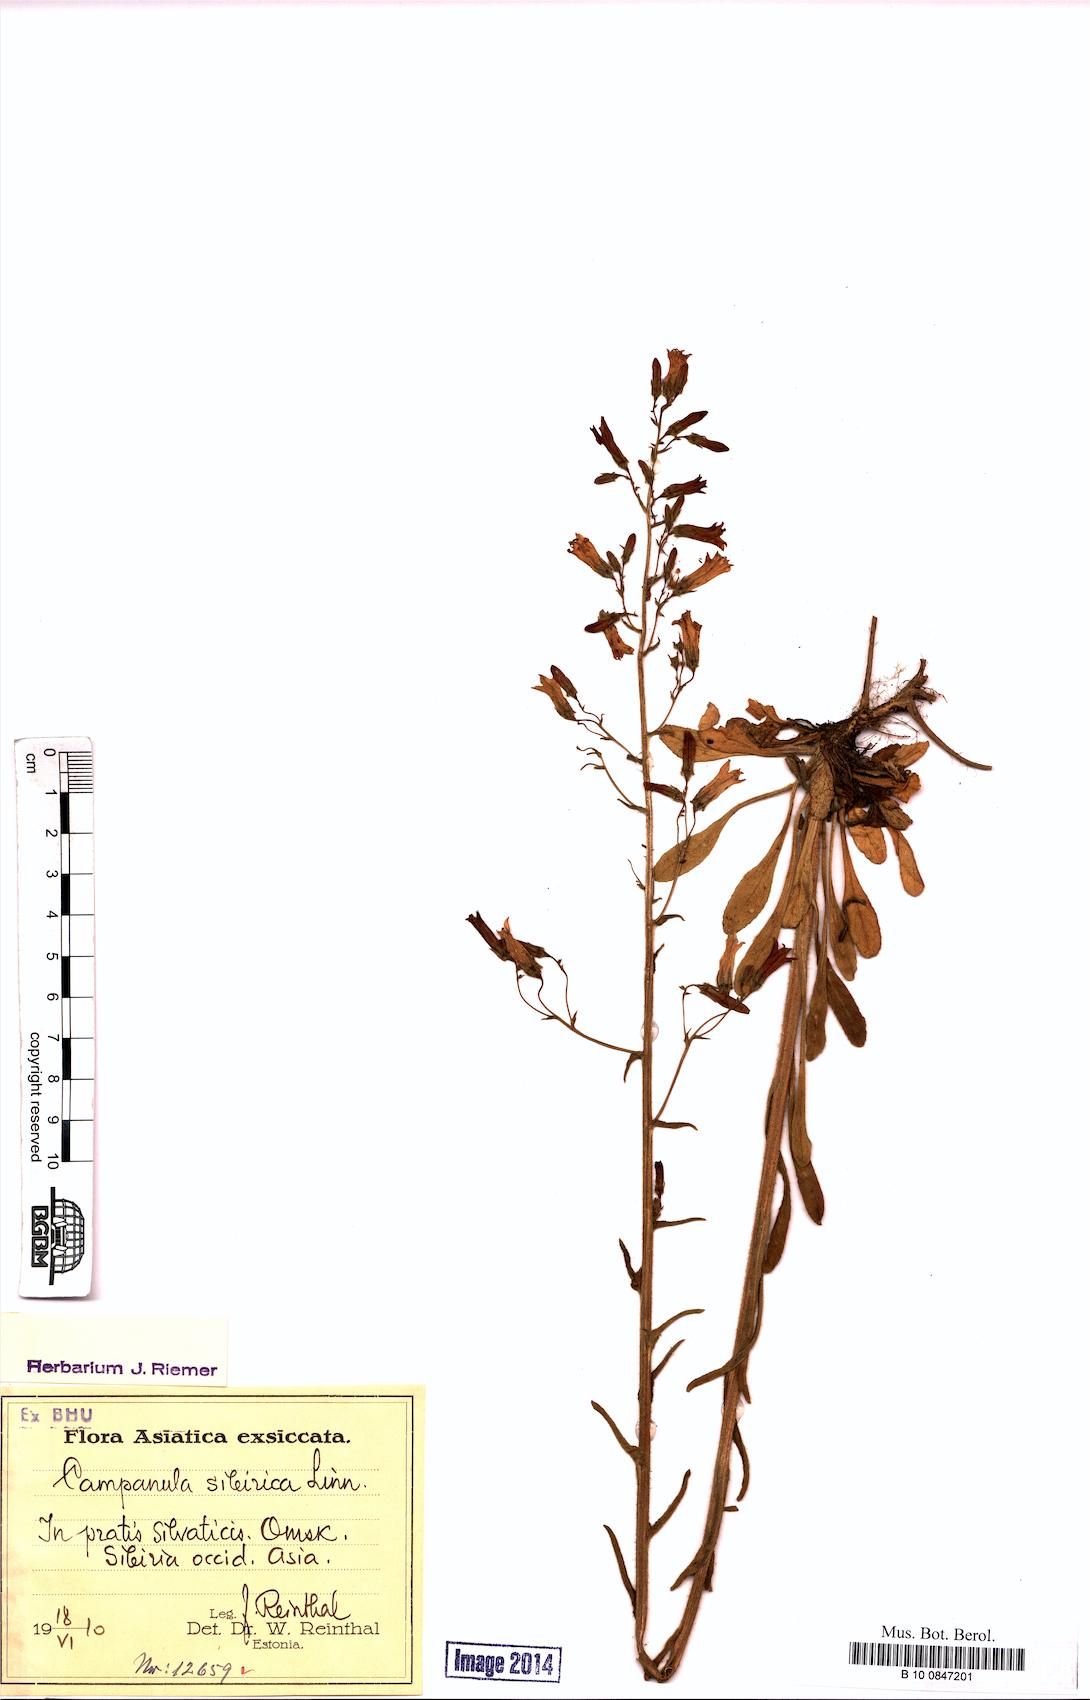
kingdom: Plantae
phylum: Tracheophyta
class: Magnoliopsida
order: Asterales
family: Campanulaceae
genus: Campanula
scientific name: Campanula sibirica
